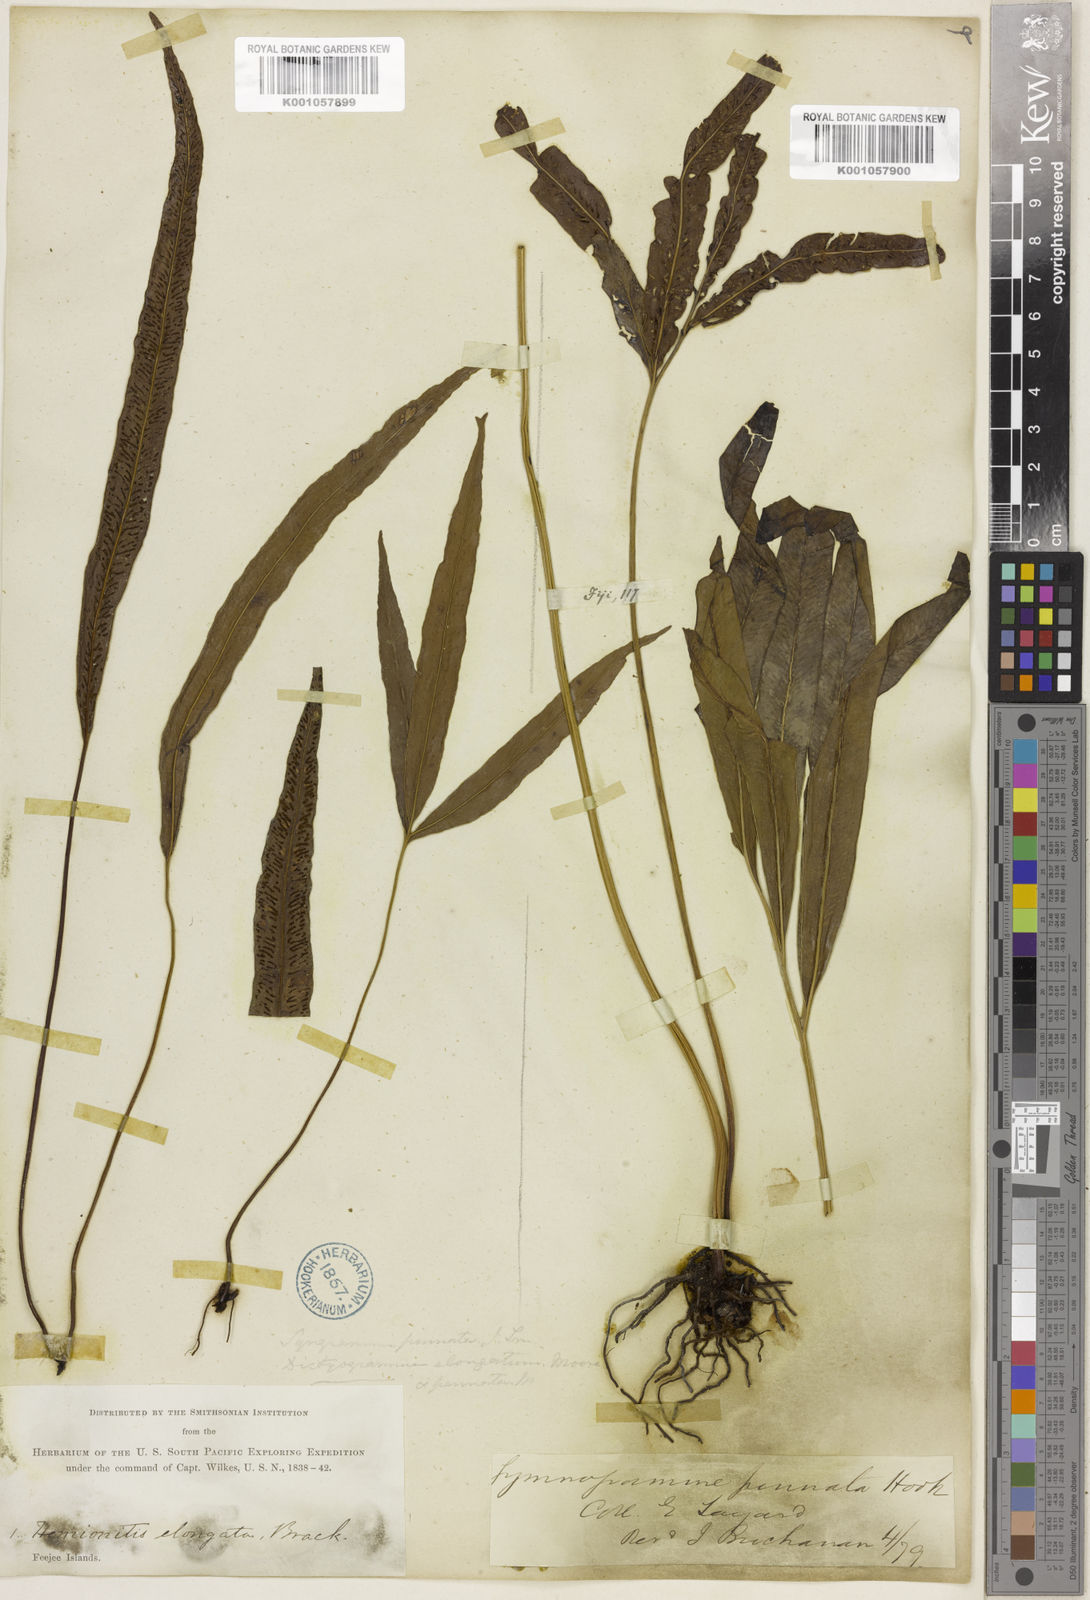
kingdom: Plantae
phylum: Tracheophyta
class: Polypodiopsida
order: Polypodiales
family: Pteridaceae
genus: Taenitis
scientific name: Taenitis pinnata
